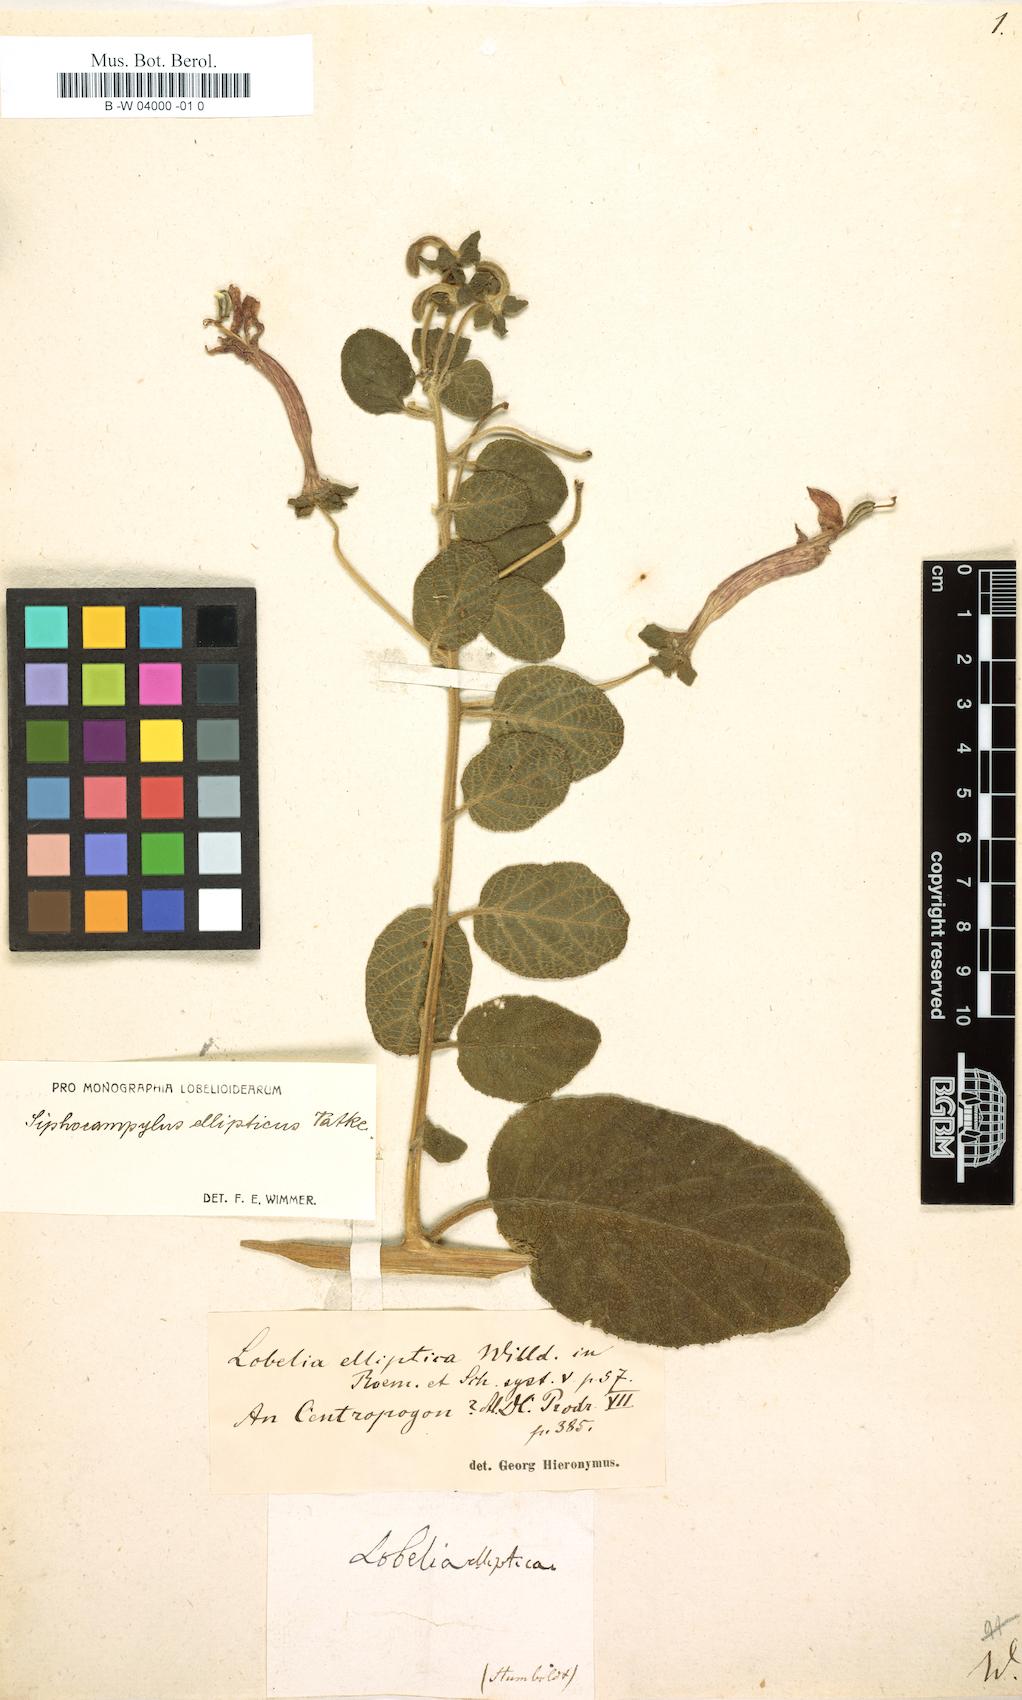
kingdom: Plantae
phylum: Tracheophyta
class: Magnoliopsida
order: Asterales
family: Campanulaceae
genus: Siphocampylus
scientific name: Siphocampylus ellipticus
